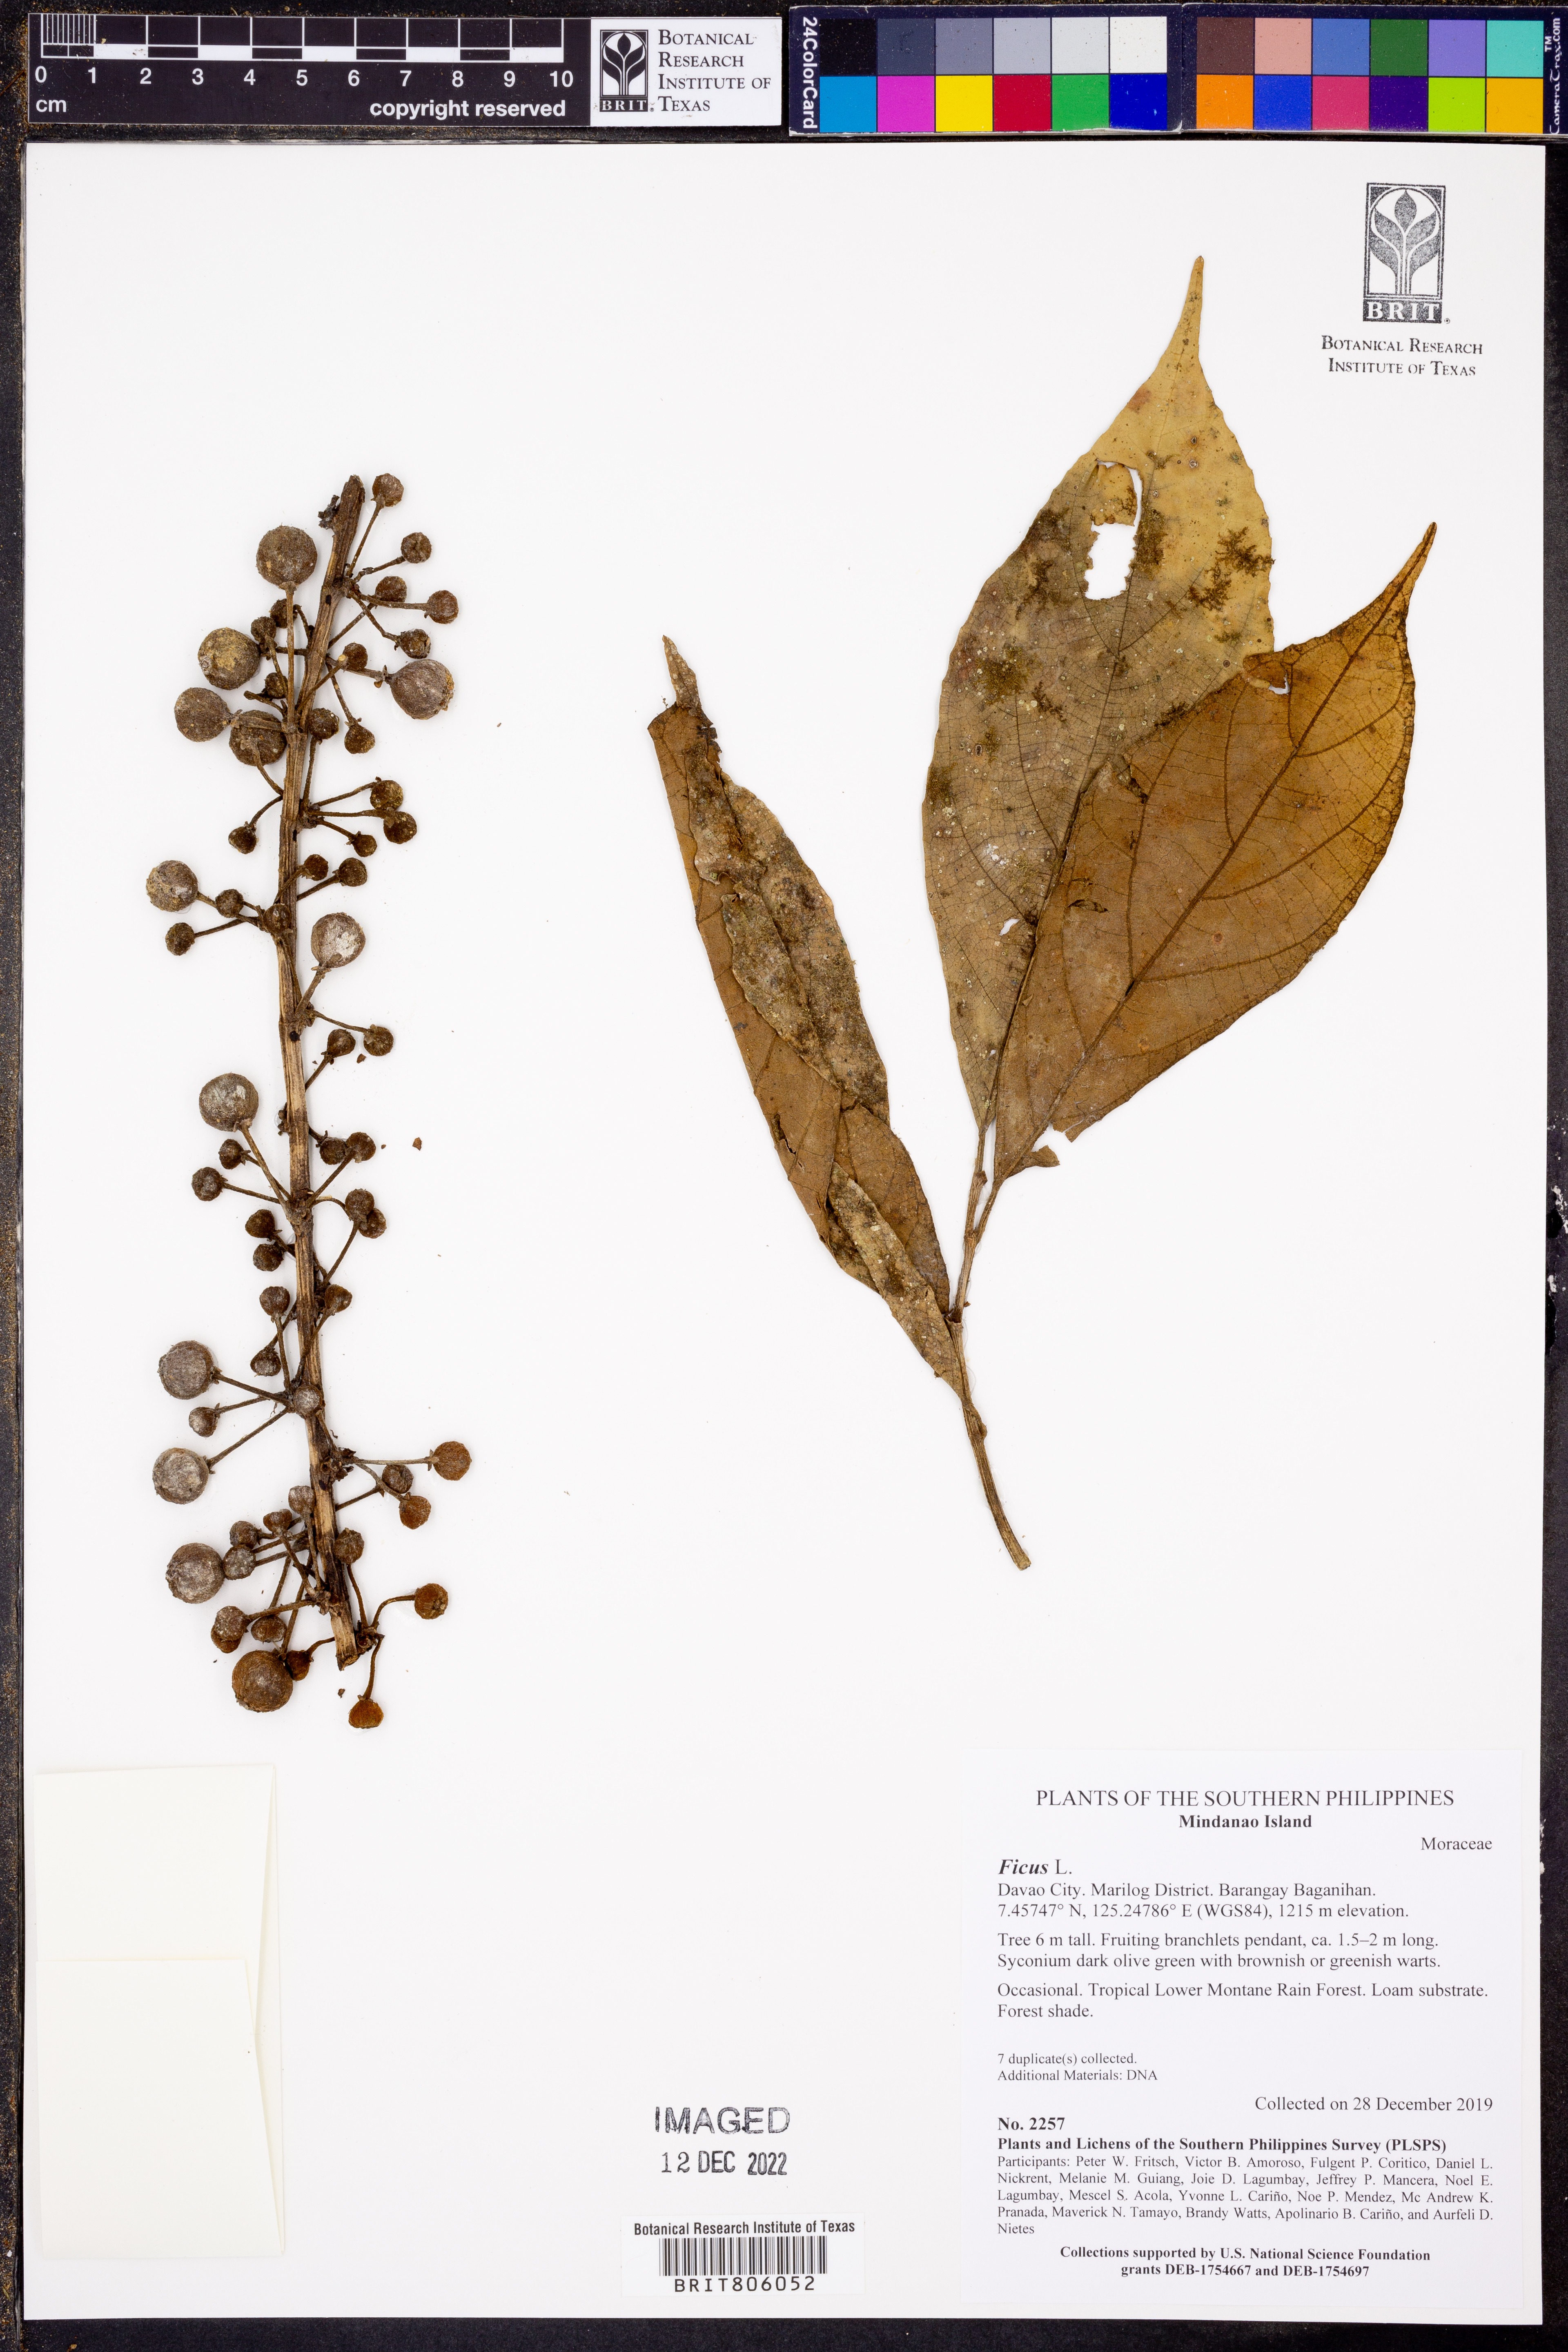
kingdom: Plantae
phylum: Tracheophyta
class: Magnoliopsida
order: Rosales
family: Moraceae
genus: Ficus
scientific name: Ficus
